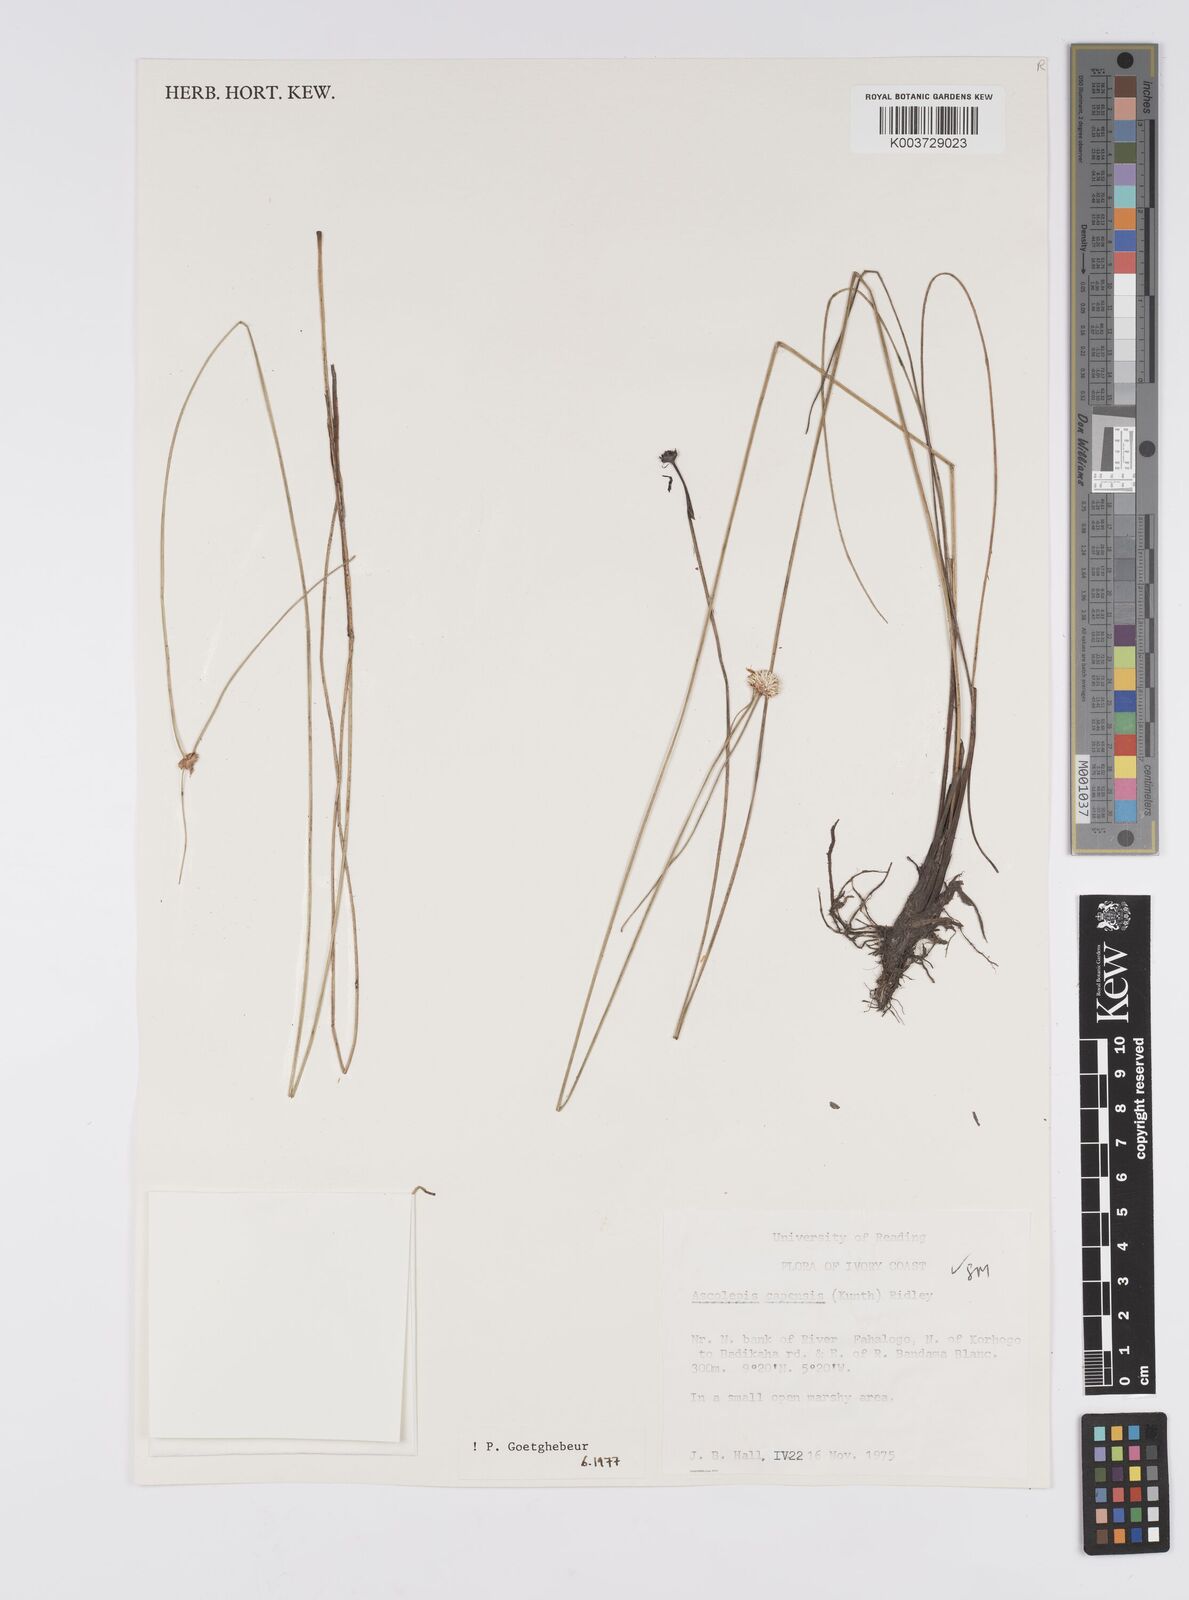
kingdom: Plantae
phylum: Tracheophyta
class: Liliopsida
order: Poales
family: Cyperaceae
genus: Ascolepis
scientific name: Ascolepis
